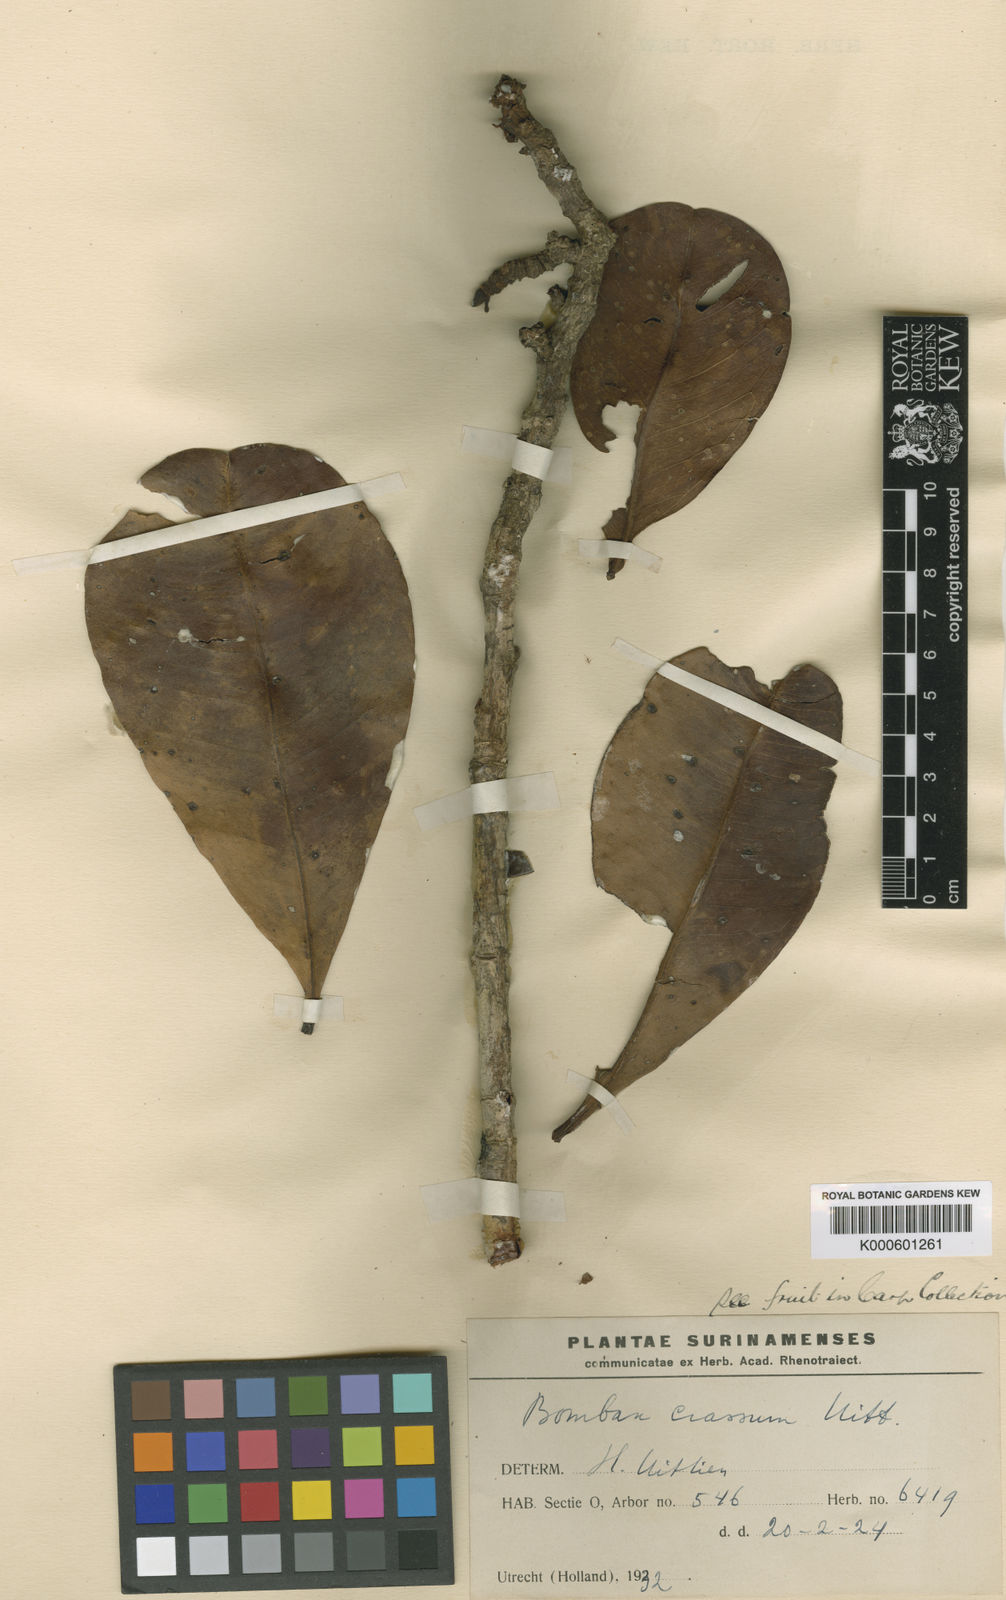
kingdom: Plantae
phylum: Tracheophyta
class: Magnoliopsida
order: Malvales
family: Malvaceae
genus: Eriotheca
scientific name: Eriotheca crassa
